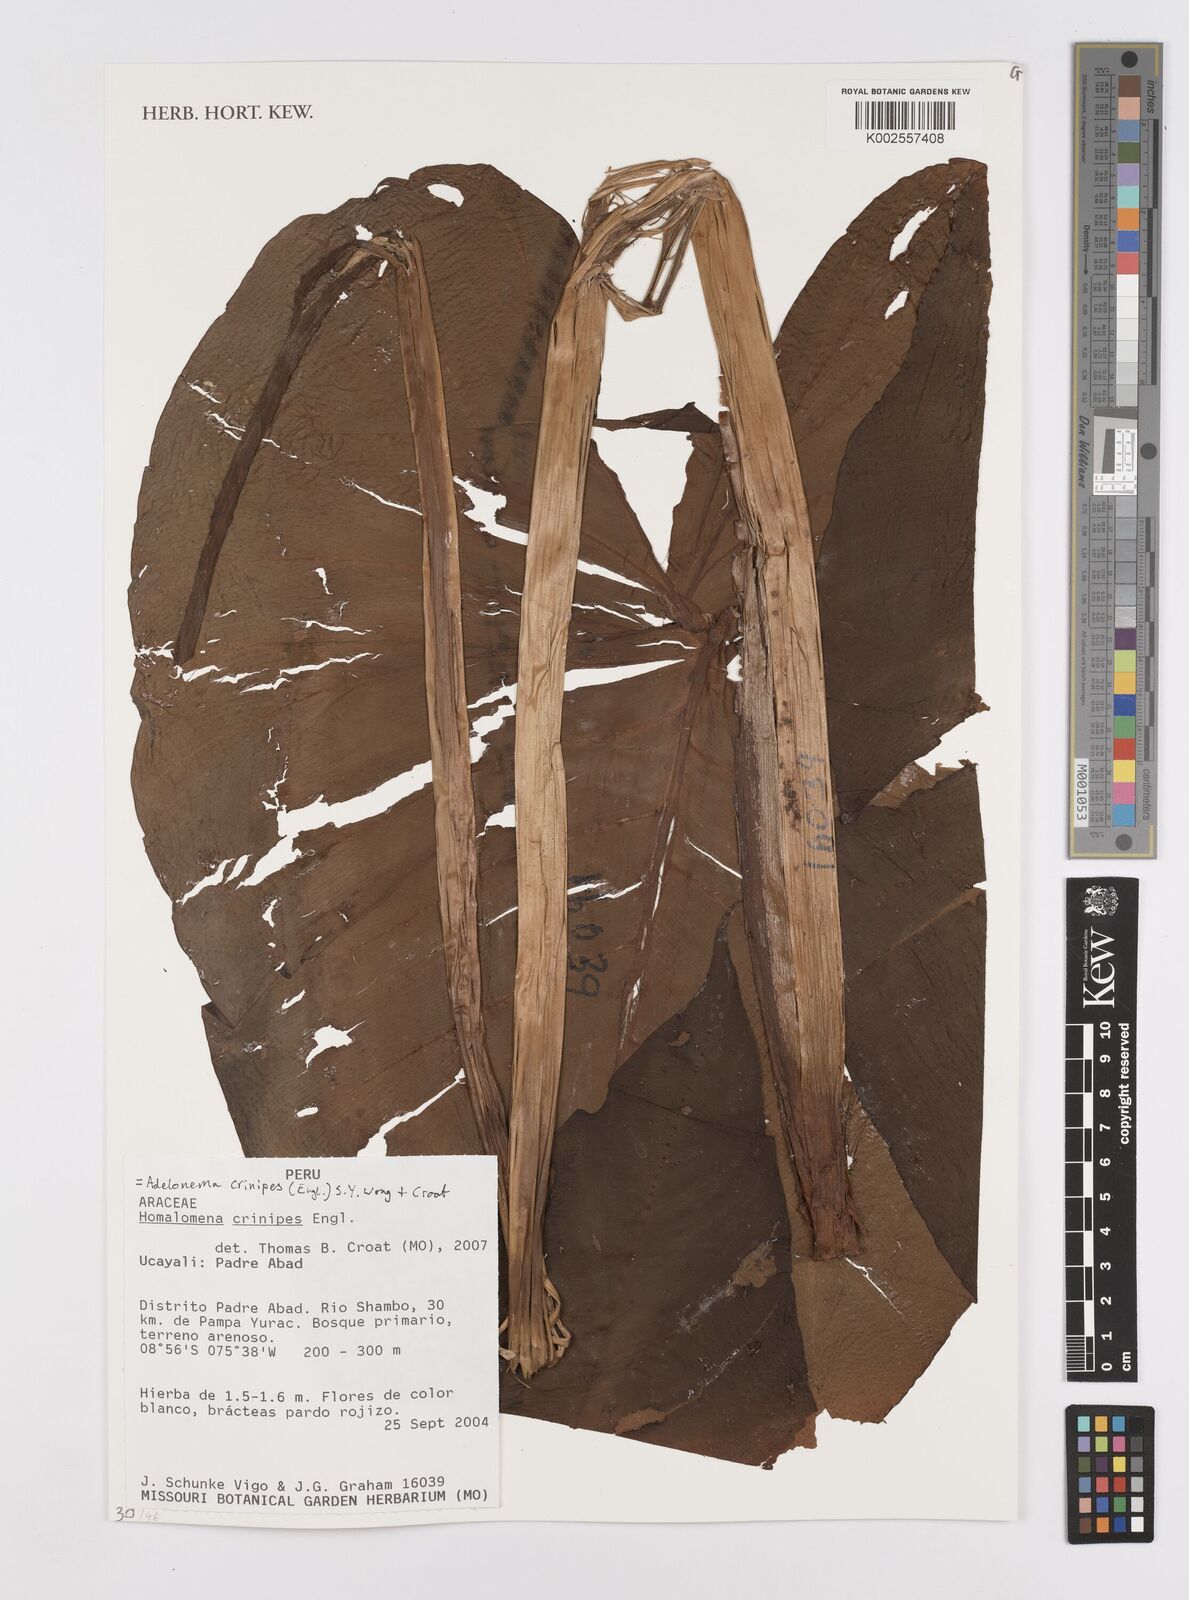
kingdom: Plantae
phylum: Tracheophyta
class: Liliopsida
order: Alismatales
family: Araceae
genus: Adelonema
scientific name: Adelonema crinipes
